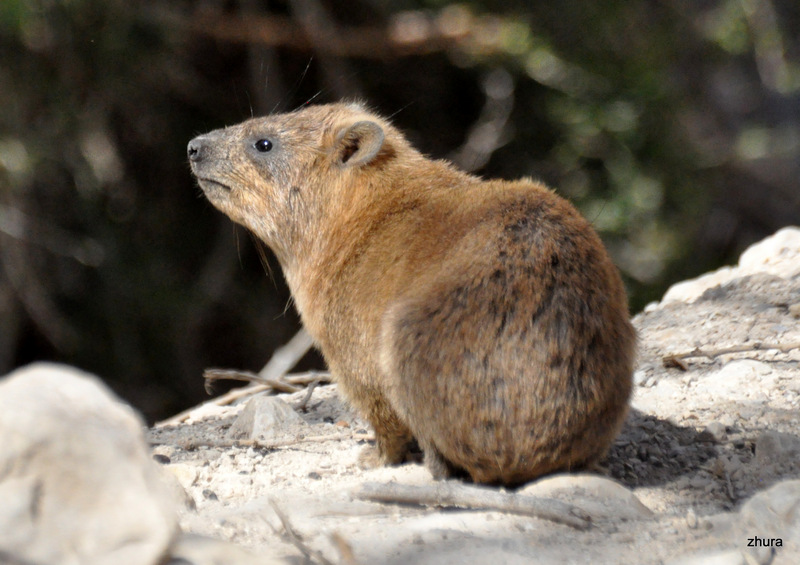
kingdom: Animalia
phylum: Chordata
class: Mammalia
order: Hyracoidea
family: Procaviidae
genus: Procavia
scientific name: Procavia capensis
